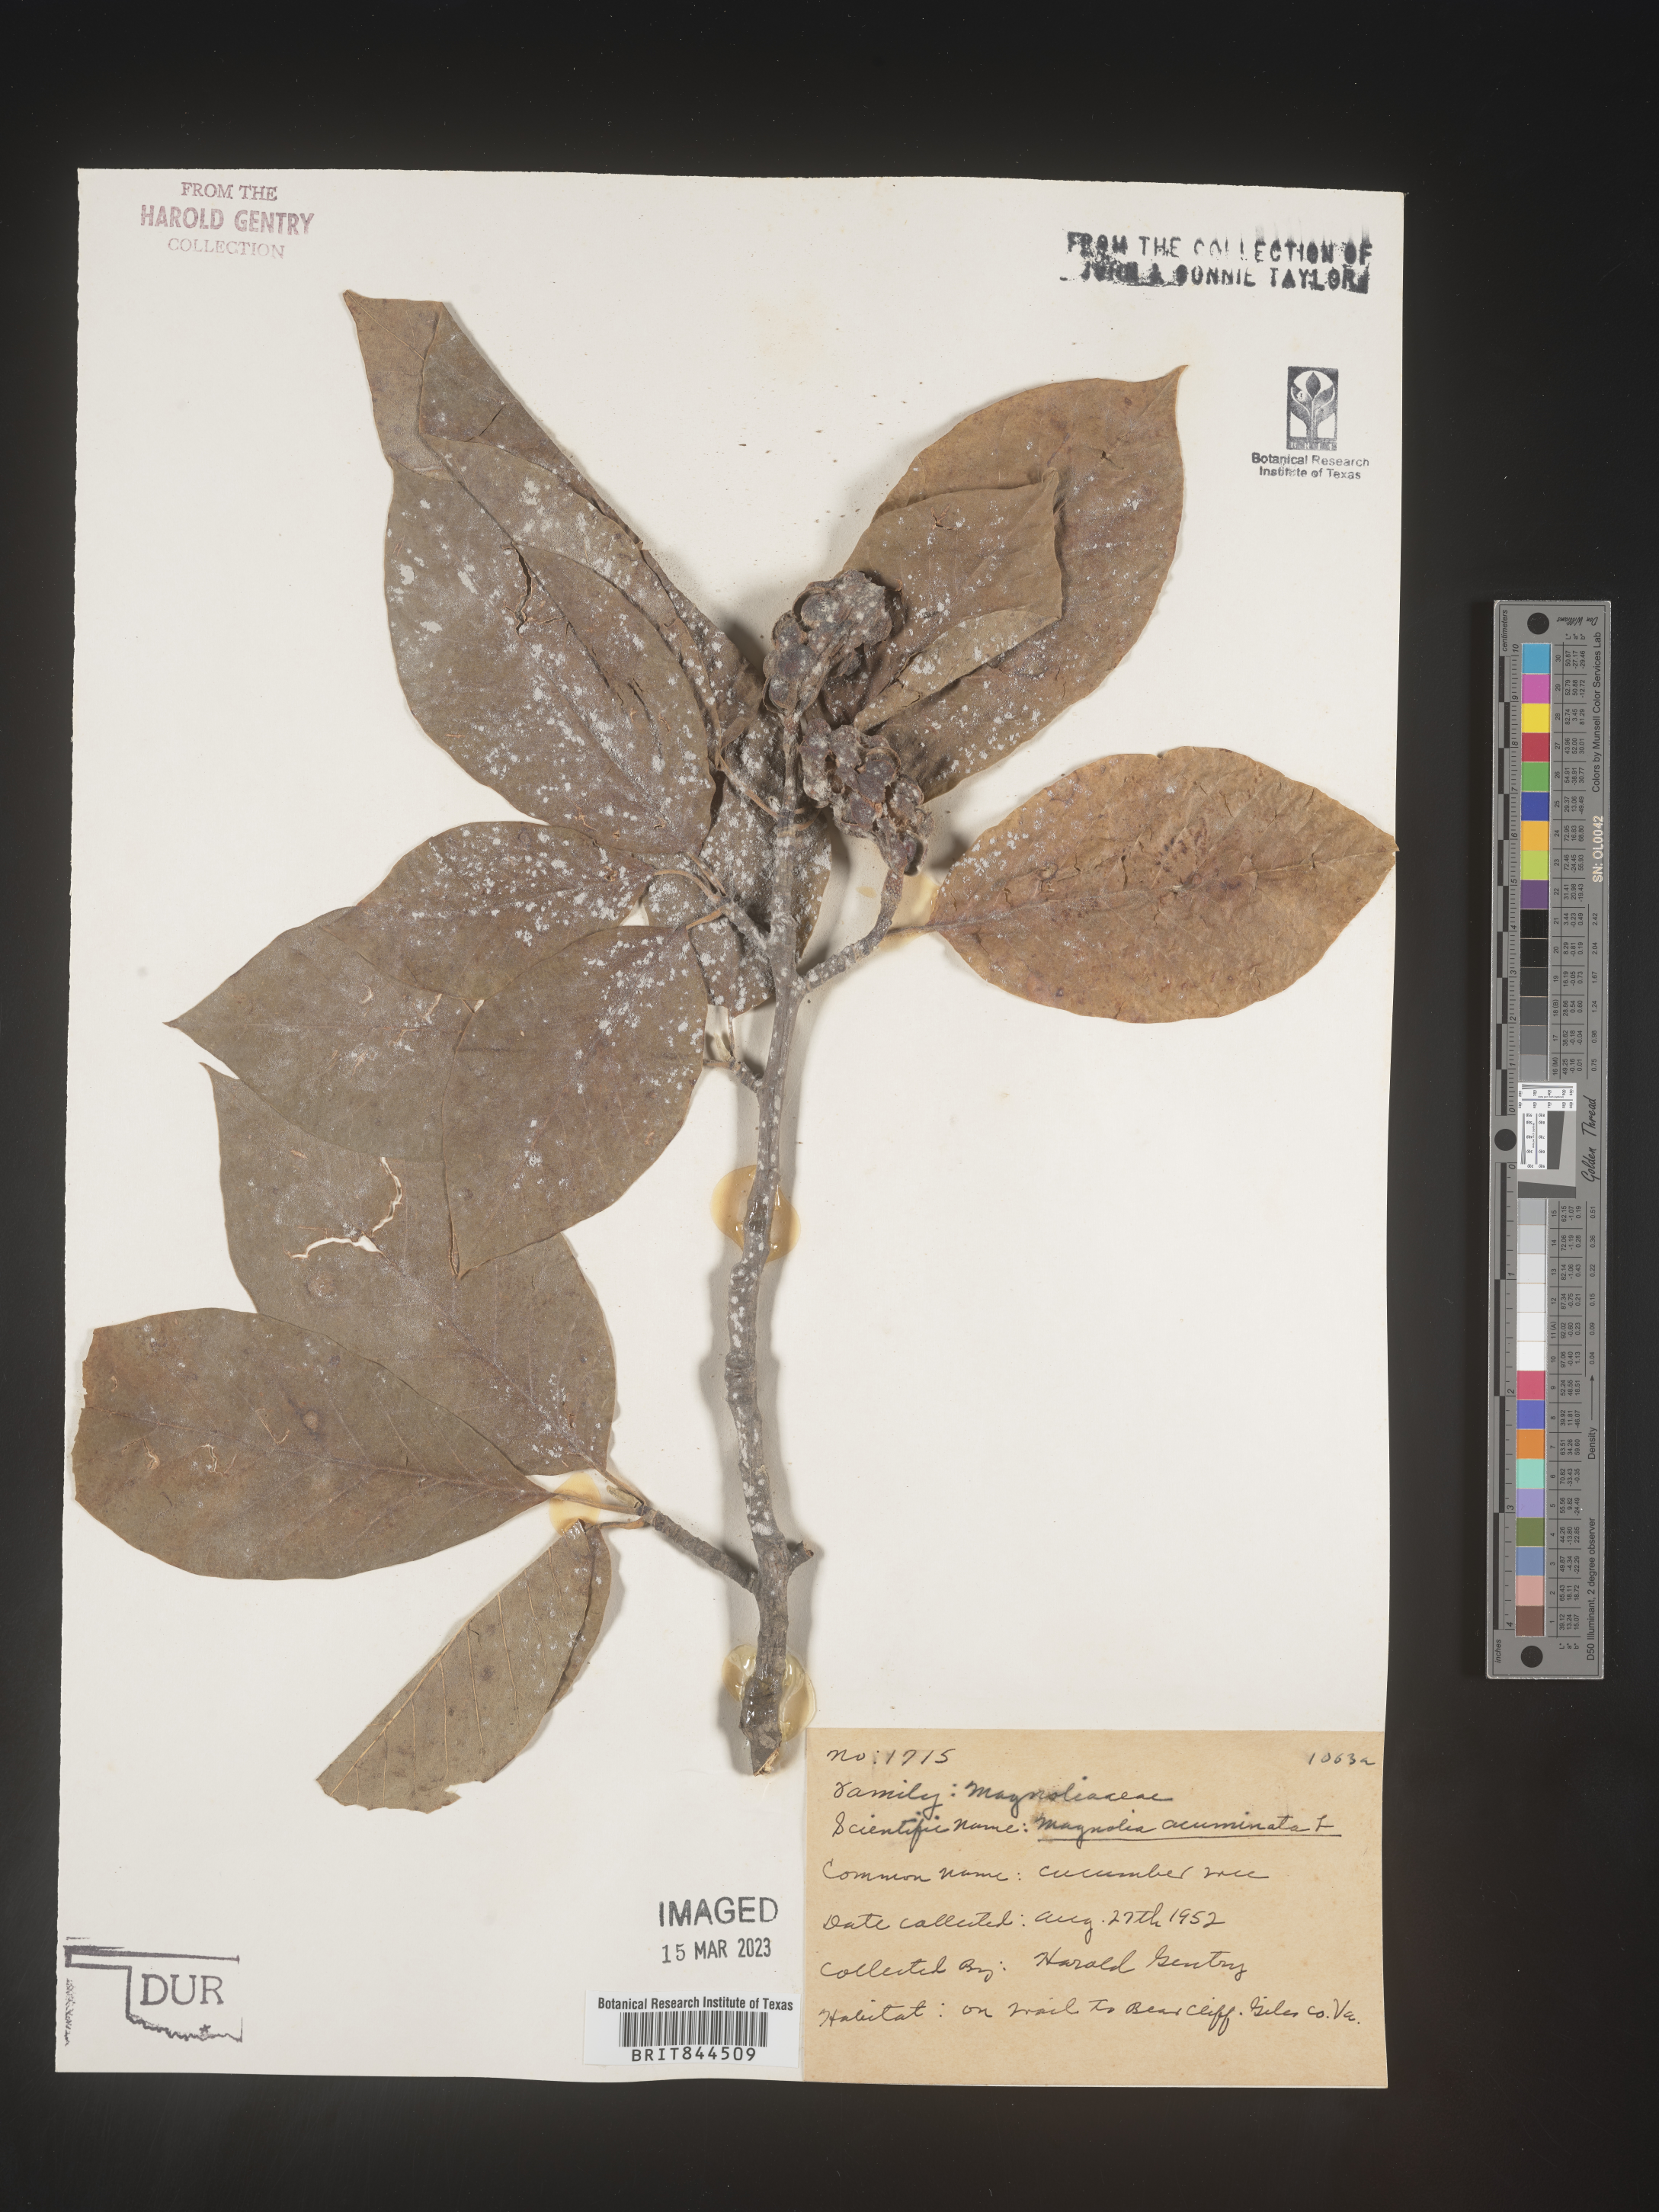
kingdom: Plantae
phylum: Tracheophyta
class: Magnoliopsida
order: Magnoliales
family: Magnoliaceae
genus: Magnolia
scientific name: Magnolia acuminata
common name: Cucumber magnolia
